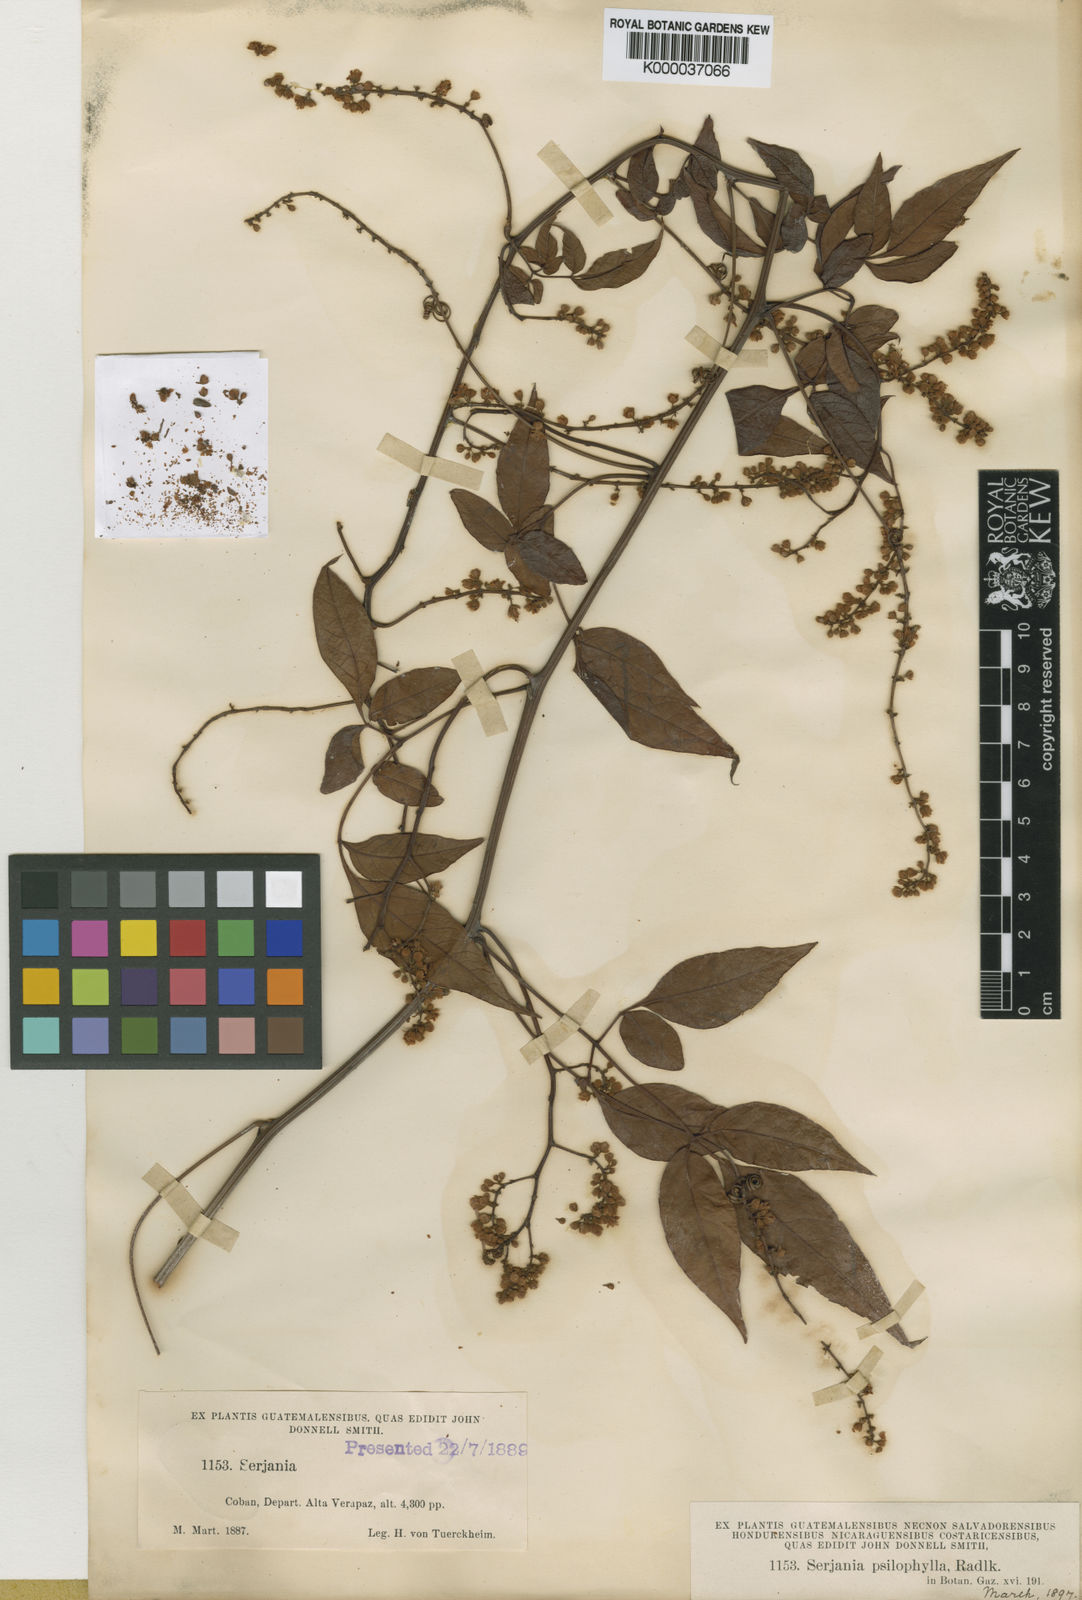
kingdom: Plantae
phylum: Tracheophyta
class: Magnoliopsida
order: Sapindales
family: Sapindaceae
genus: Serjania
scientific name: Serjania psilophylla
